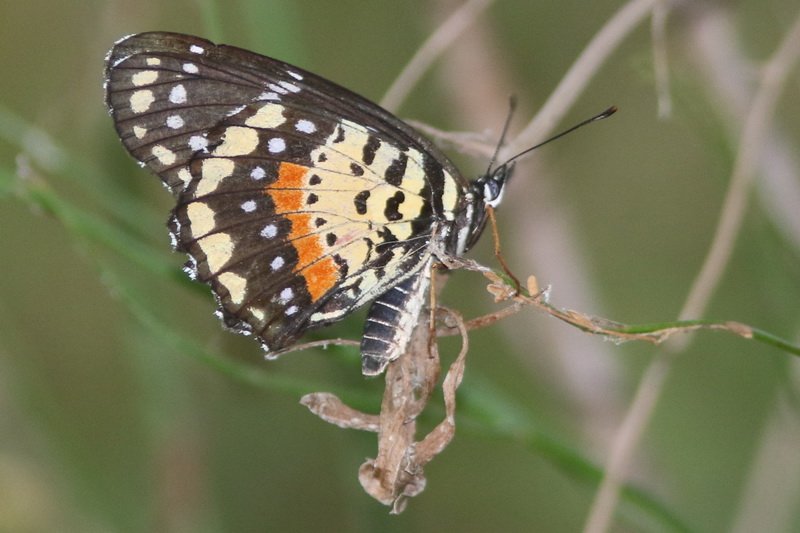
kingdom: Animalia
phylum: Arthropoda
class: Insecta
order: Lepidoptera
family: Nymphalidae
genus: Chlosyne
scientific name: Chlosyne janais
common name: Crimson Patch
